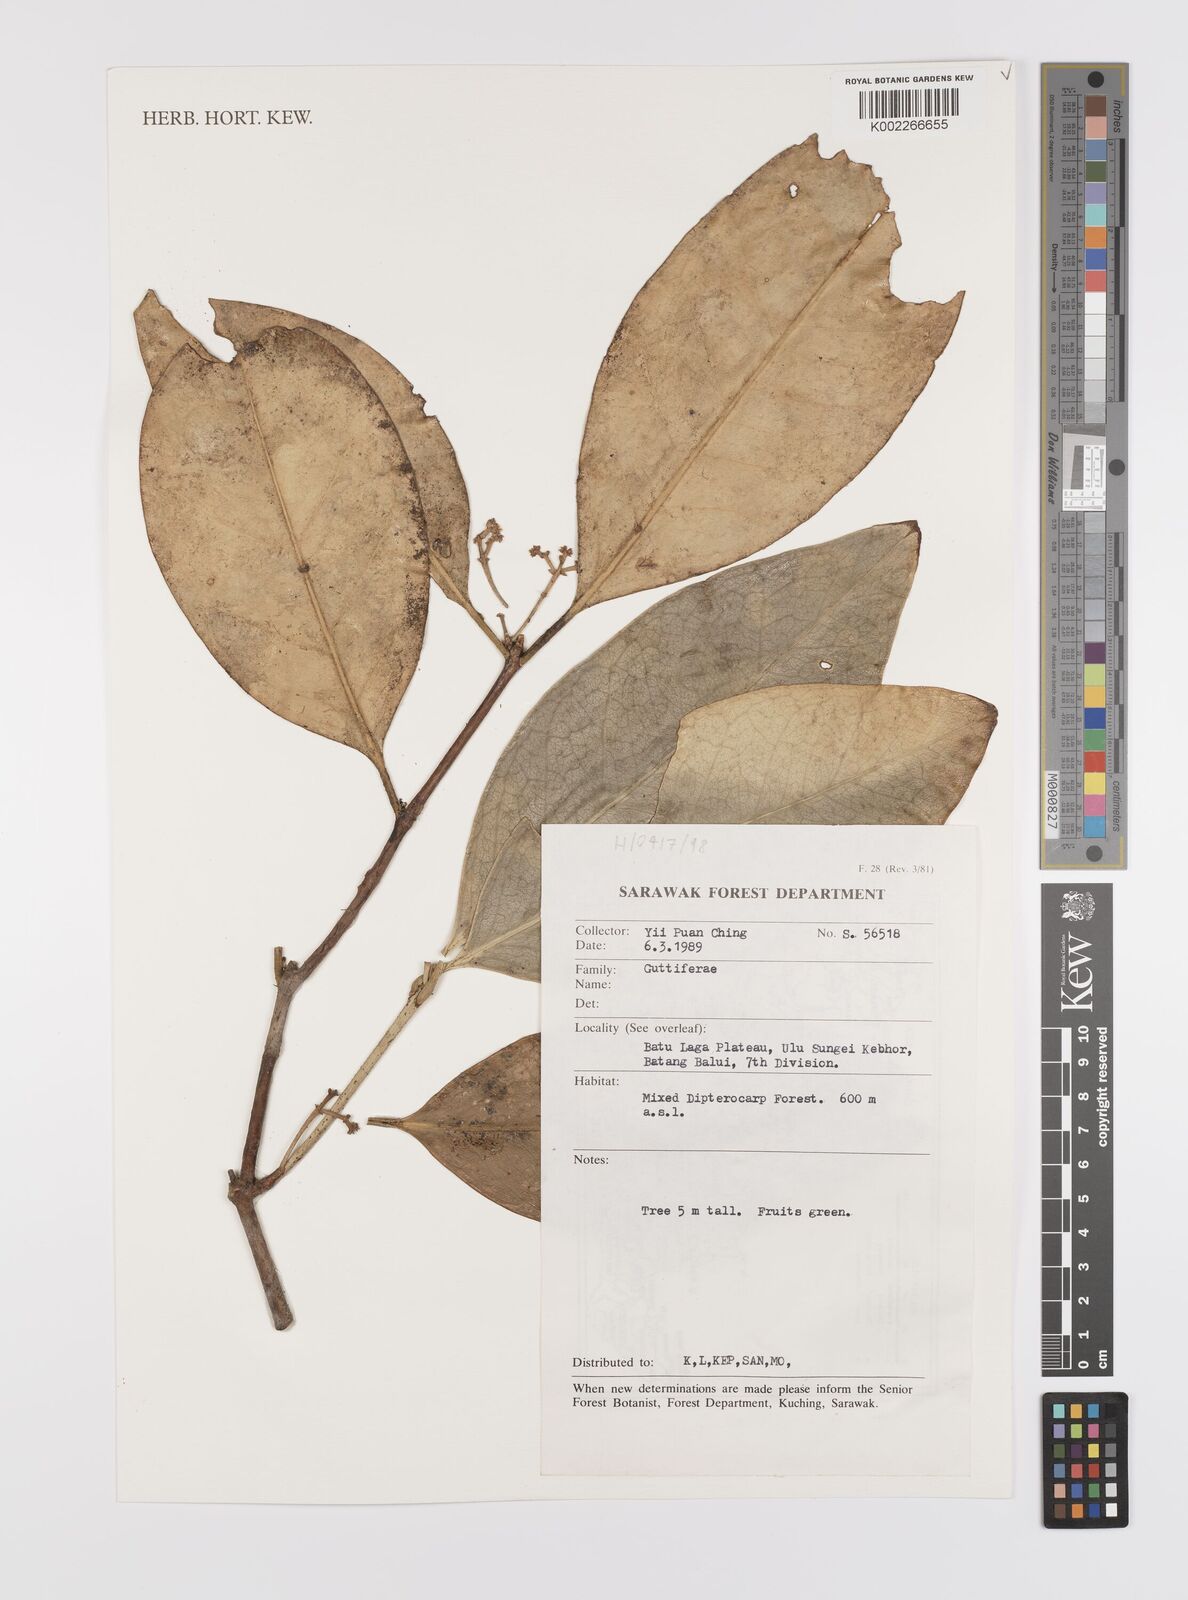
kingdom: Plantae
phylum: Tracheophyta
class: Magnoliopsida
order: Celastrales
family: Celastraceae
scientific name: Celastraceae
